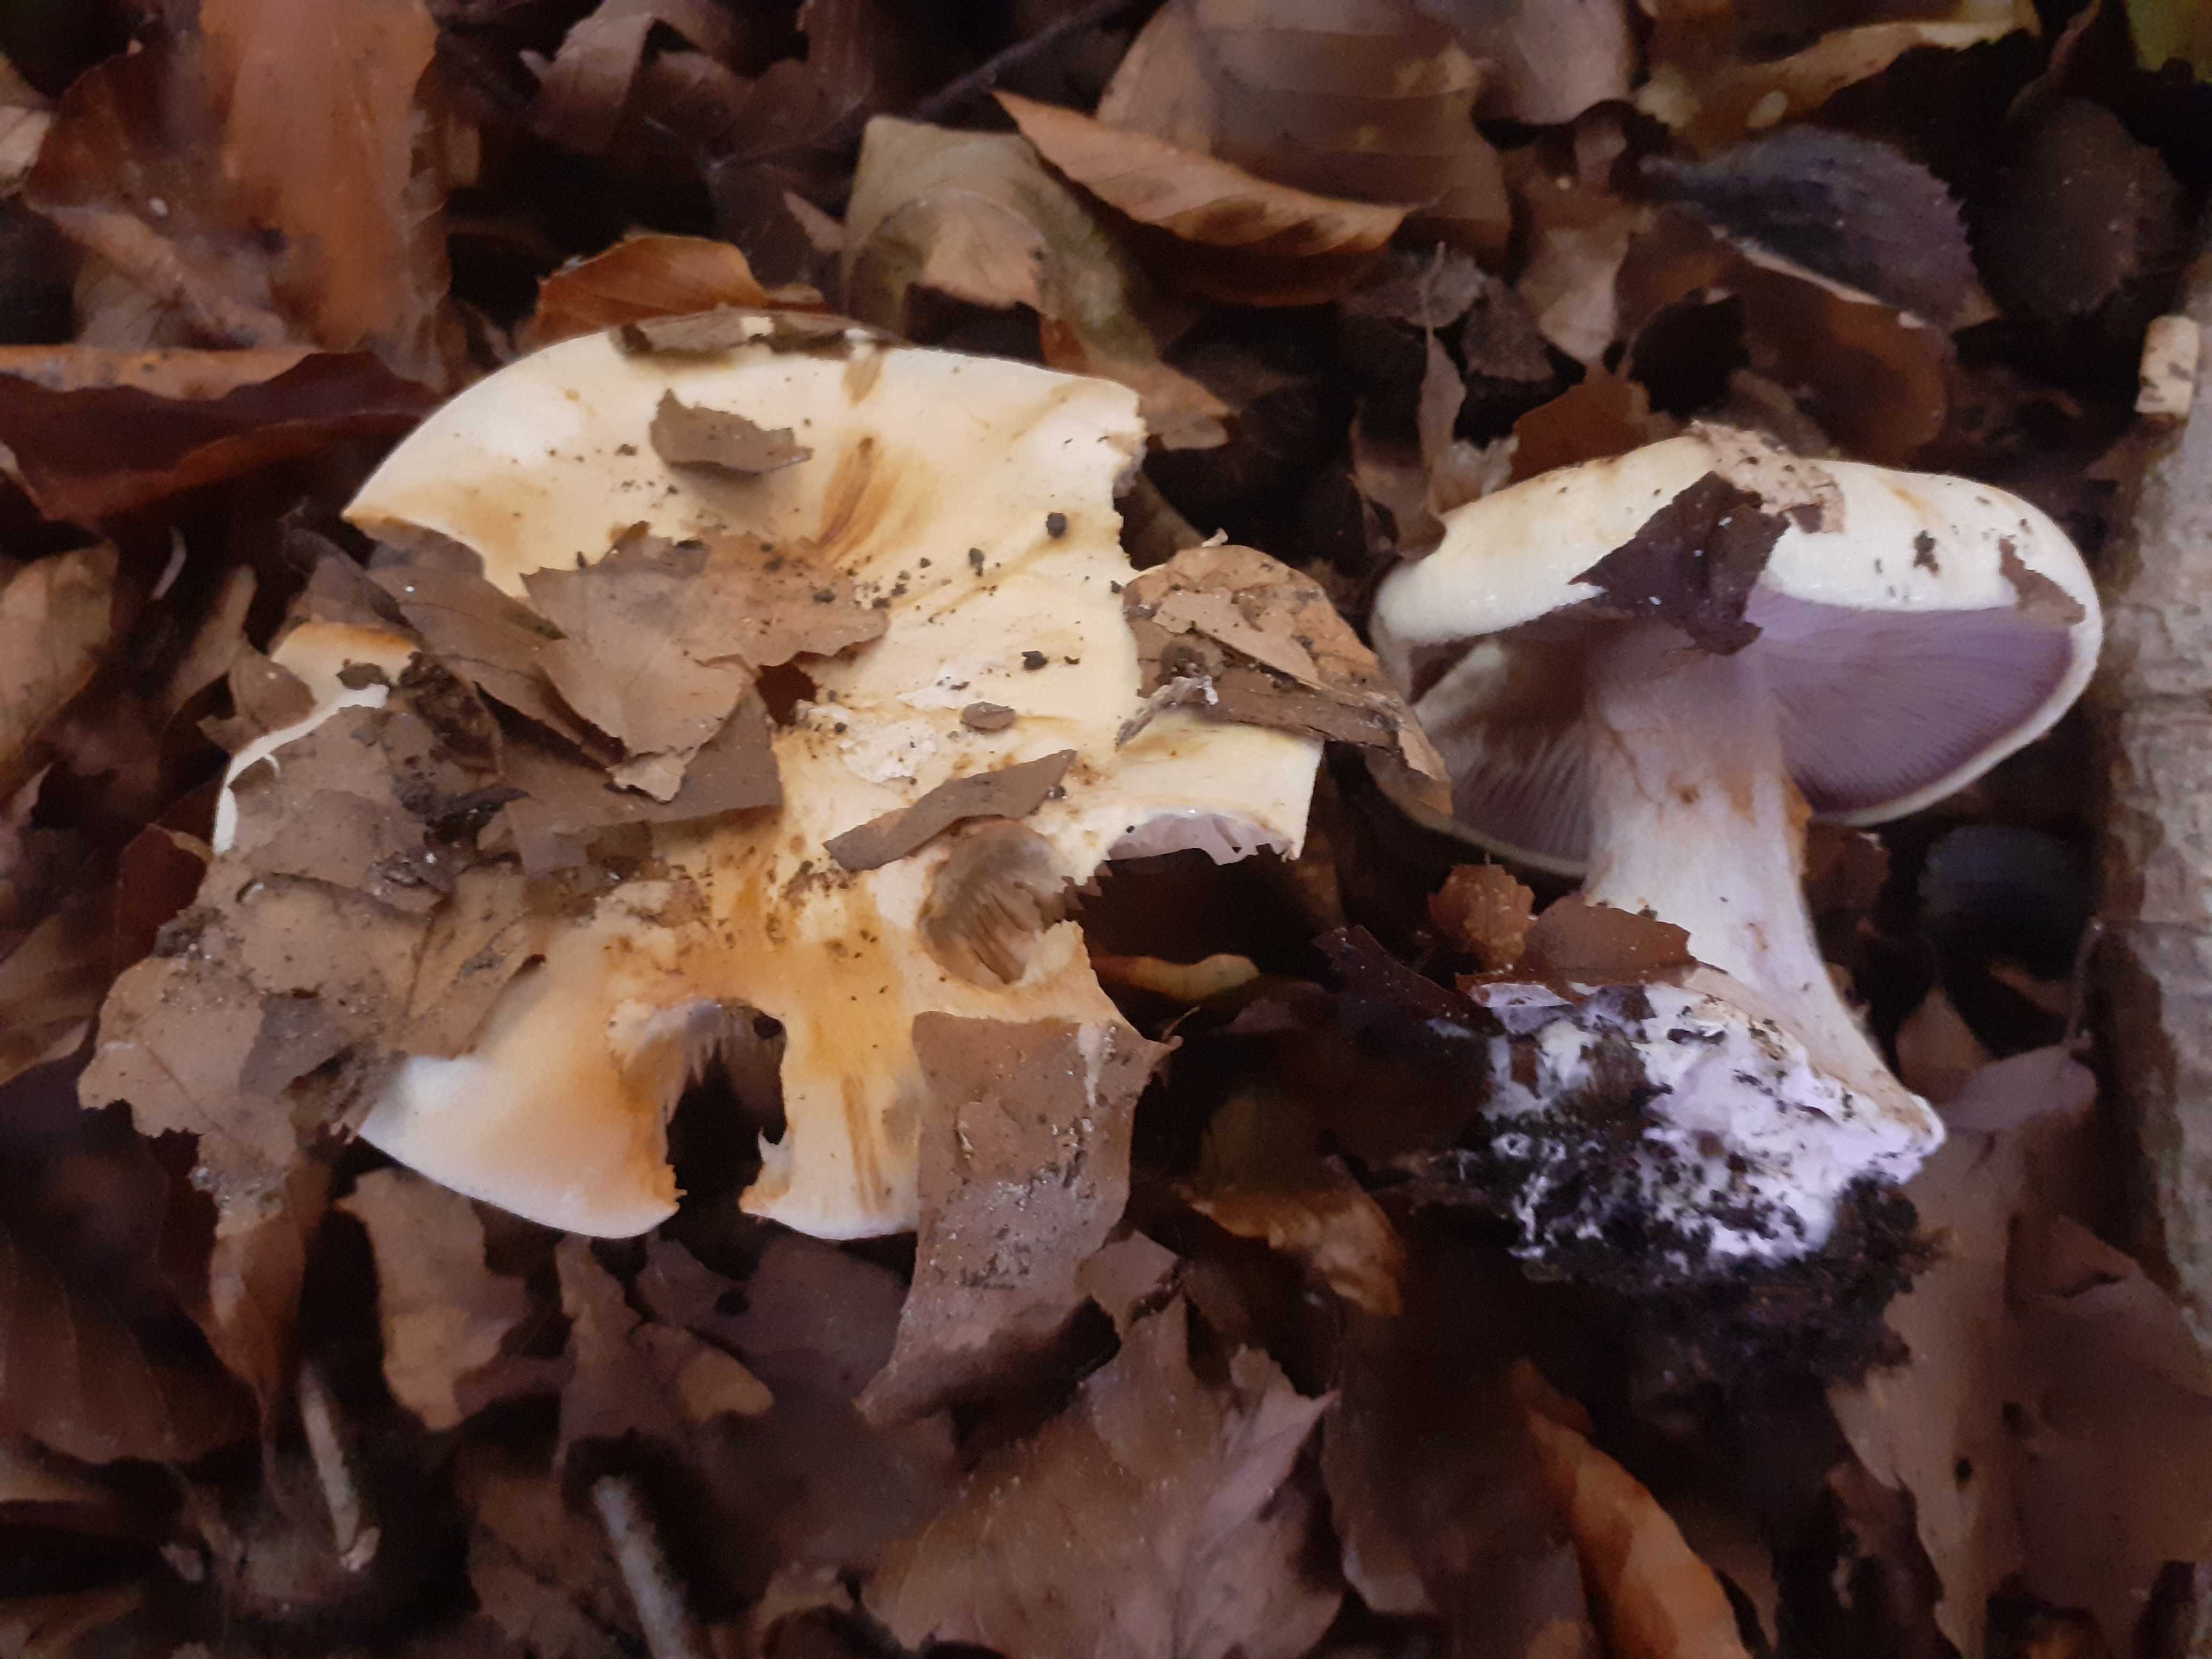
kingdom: Fungi
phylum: Basidiomycota
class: Agaricomycetes
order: Agaricales
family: Cortinariaceae
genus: Calonarius
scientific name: Calonarius platypus
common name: platfodet slørhat
